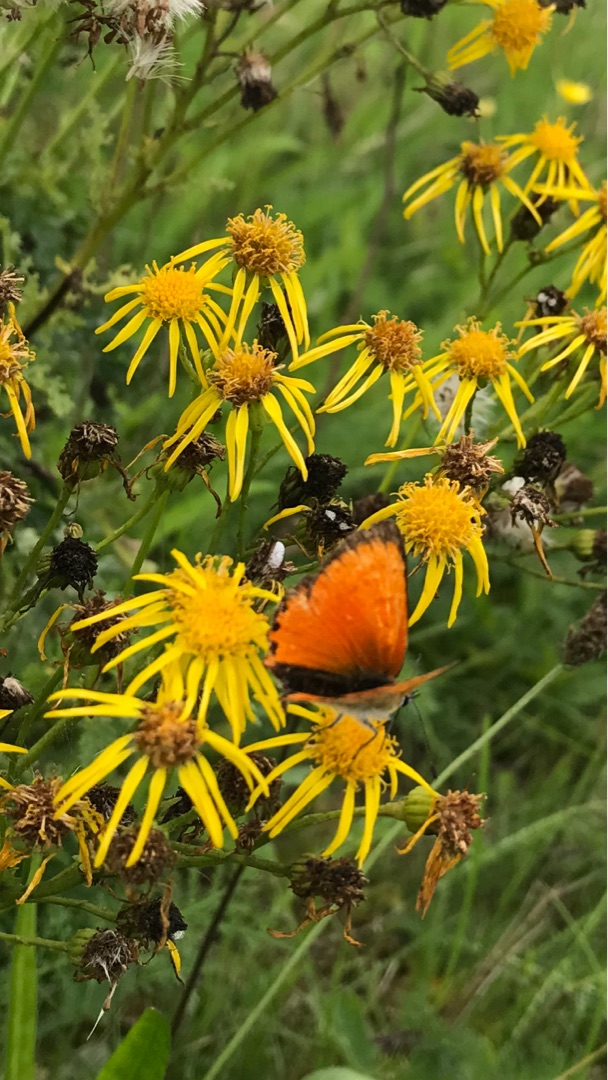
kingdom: Animalia
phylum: Arthropoda
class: Insecta
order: Lepidoptera
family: Lycaenidae
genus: Lycaena
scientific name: Lycaena virgaureae
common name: Dukatsommerfugl
